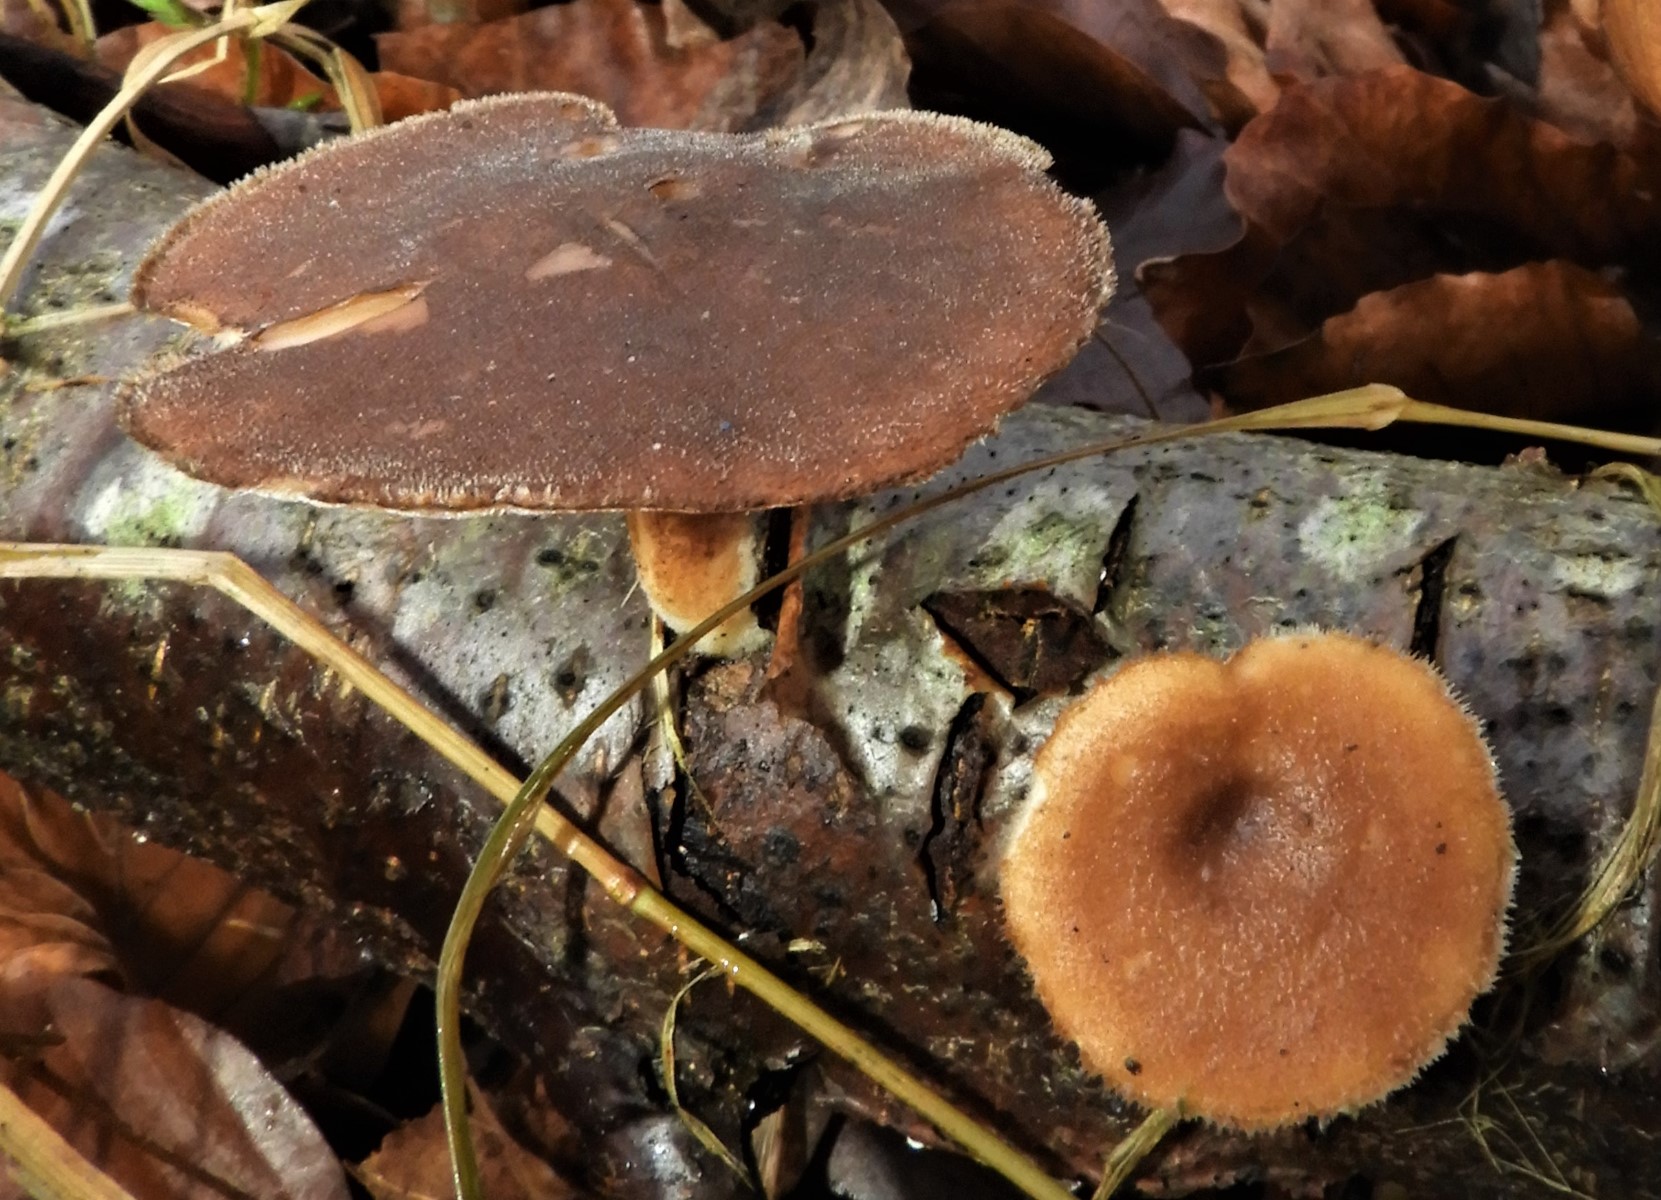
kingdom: Fungi
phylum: Basidiomycota
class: Agaricomycetes
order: Polyporales
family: Polyporaceae
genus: Lentinus
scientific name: Lentinus brumalis
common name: vinter-stilkporesvamp
